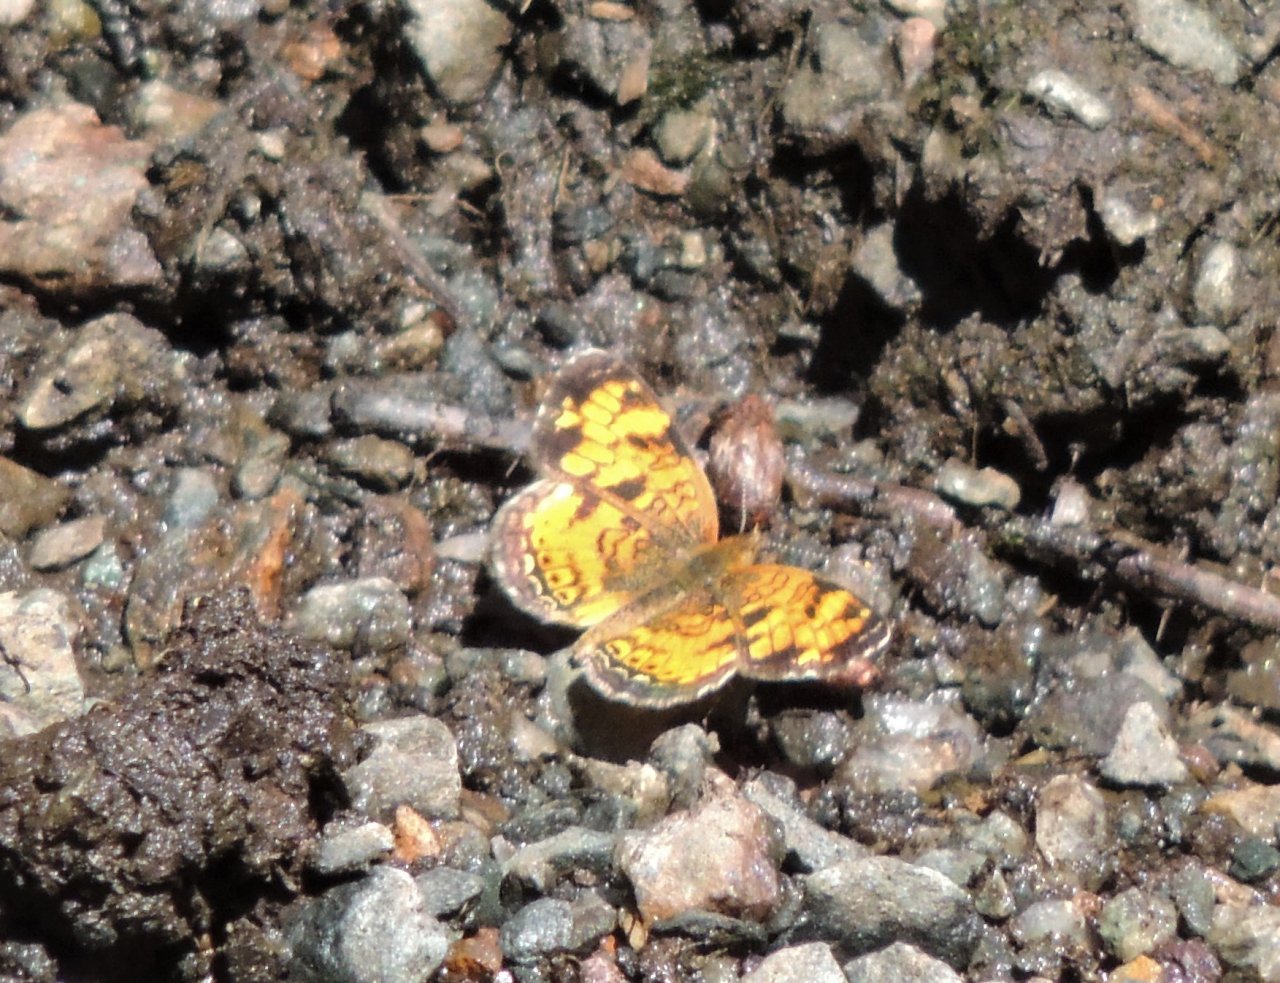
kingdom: Animalia
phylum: Arthropoda
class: Insecta
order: Lepidoptera
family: Nymphalidae
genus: Phyciodes
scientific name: Phyciodes tharos
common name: Northern Crescent
